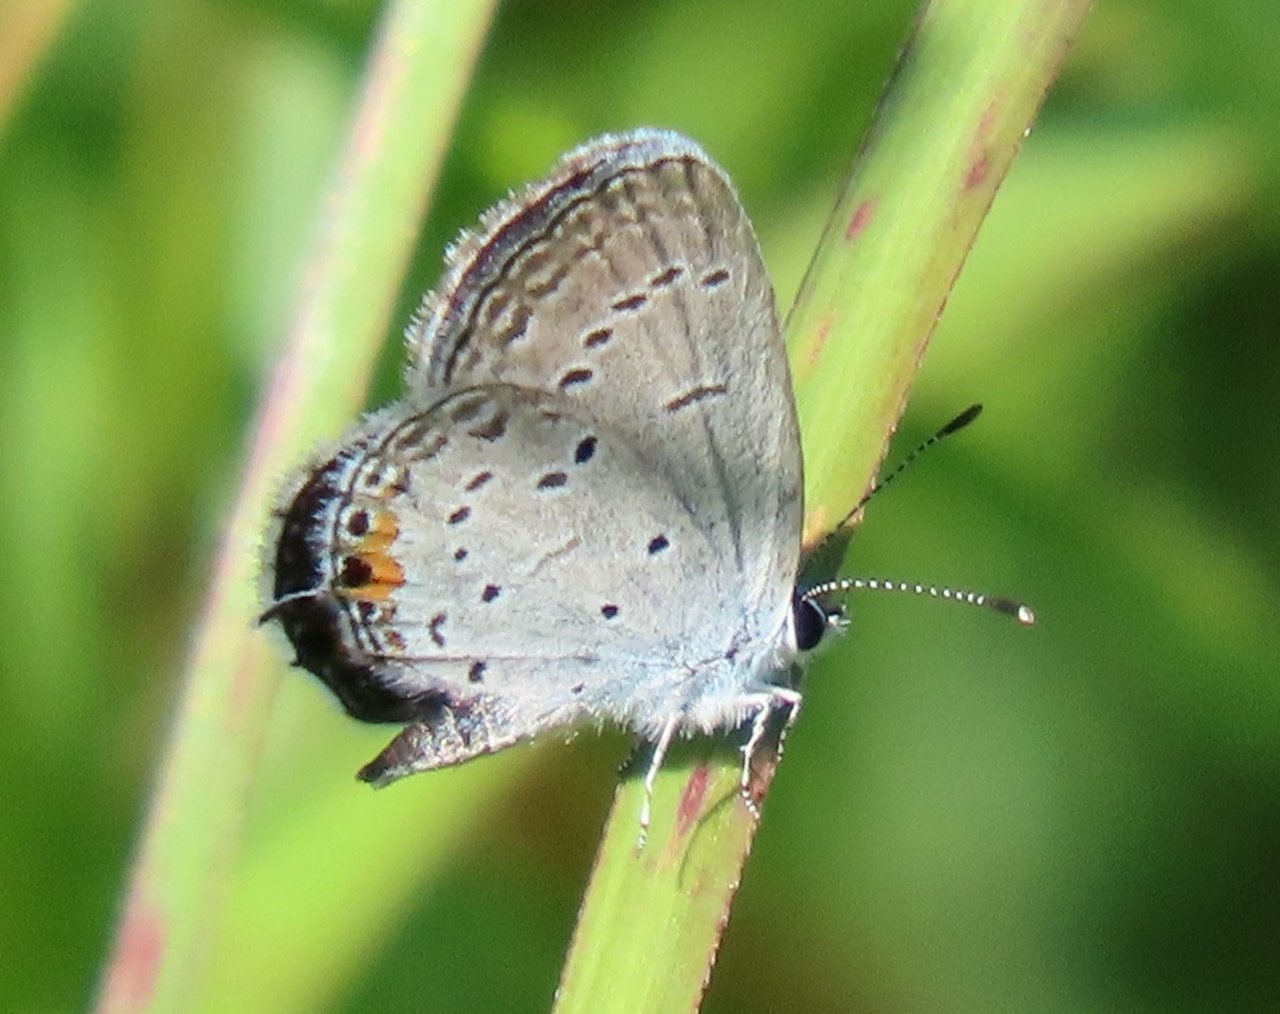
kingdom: Animalia
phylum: Arthropoda
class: Insecta
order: Lepidoptera
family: Lycaenidae
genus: Elkalyce
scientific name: Elkalyce comyntas
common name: Eastern Tailed-Blue
